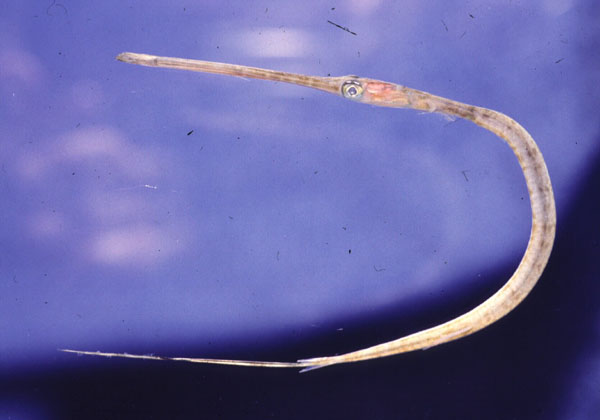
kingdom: Animalia
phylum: Chordata
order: Syngnathiformes
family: Fistulariidae
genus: Fistularia
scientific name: Fistularia commersonii
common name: Bluespotted cornetfish
